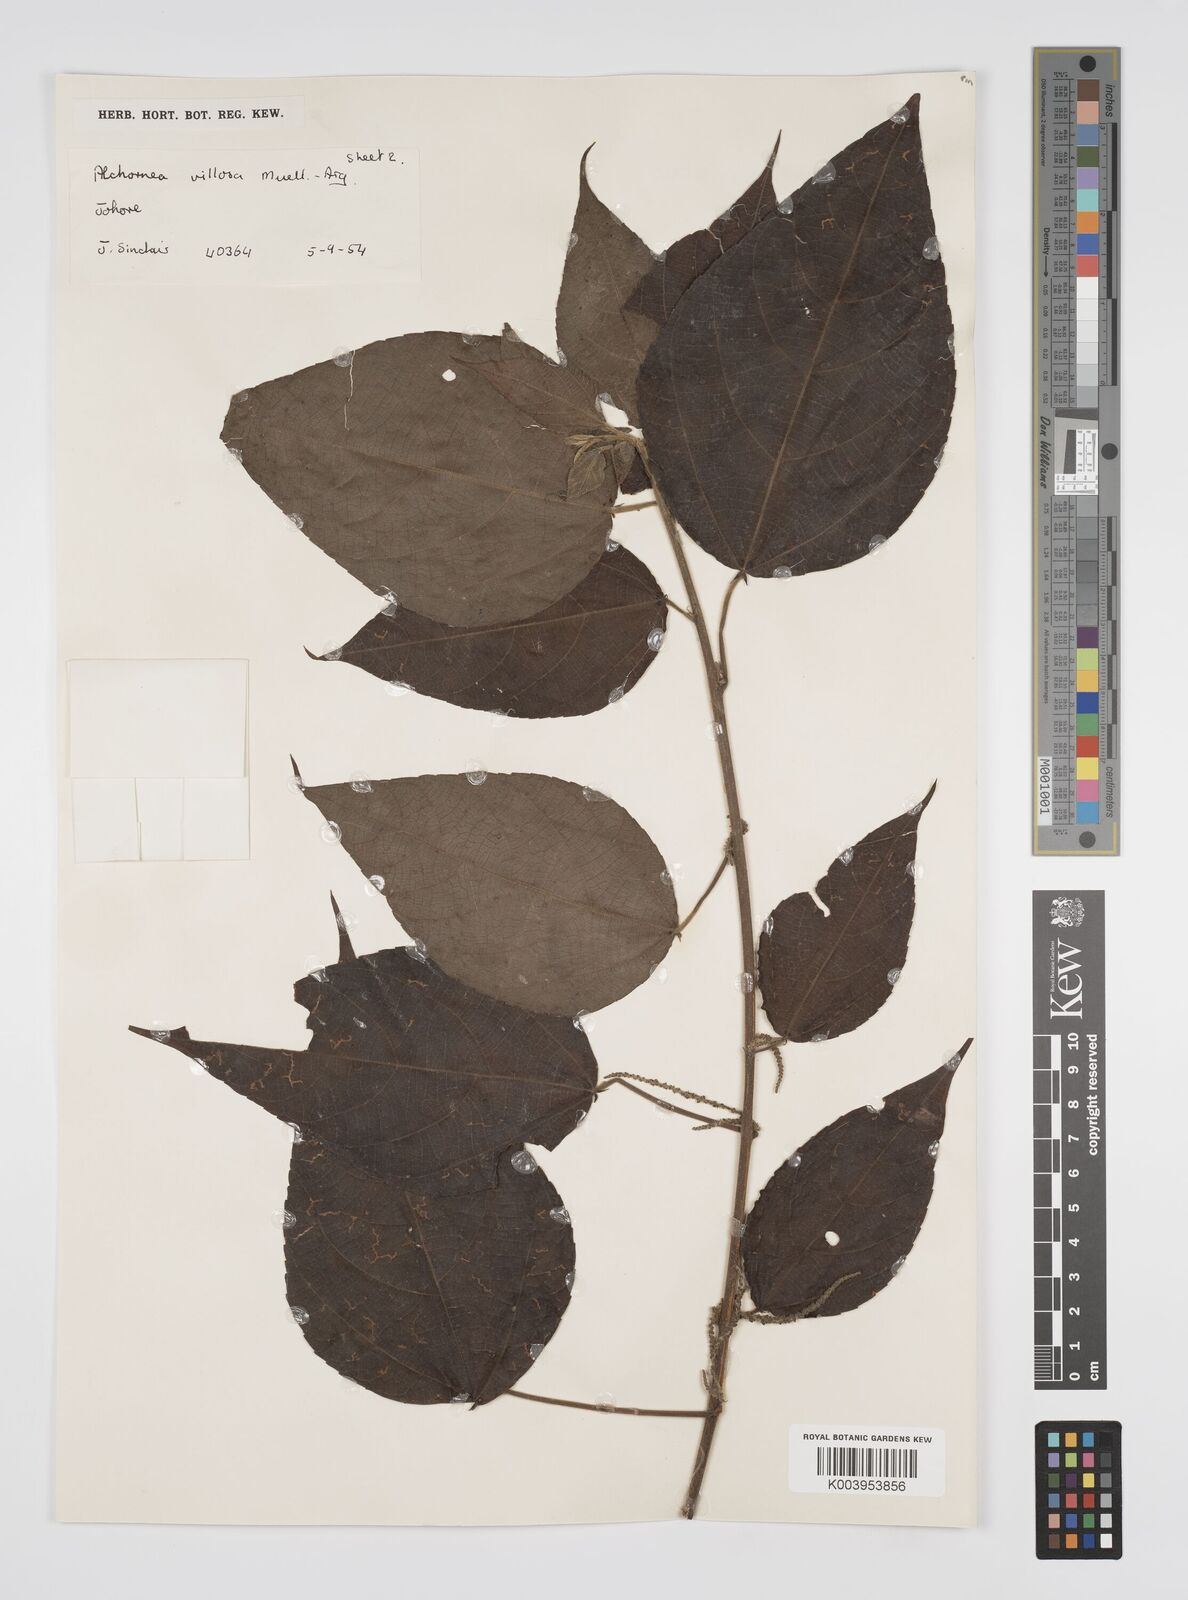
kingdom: Plantae
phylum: Tracheophyta
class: Magnoliopsida
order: Malpighiales
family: Euphorbiaceae
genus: Alchornea
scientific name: Alchornea tiliifolia
